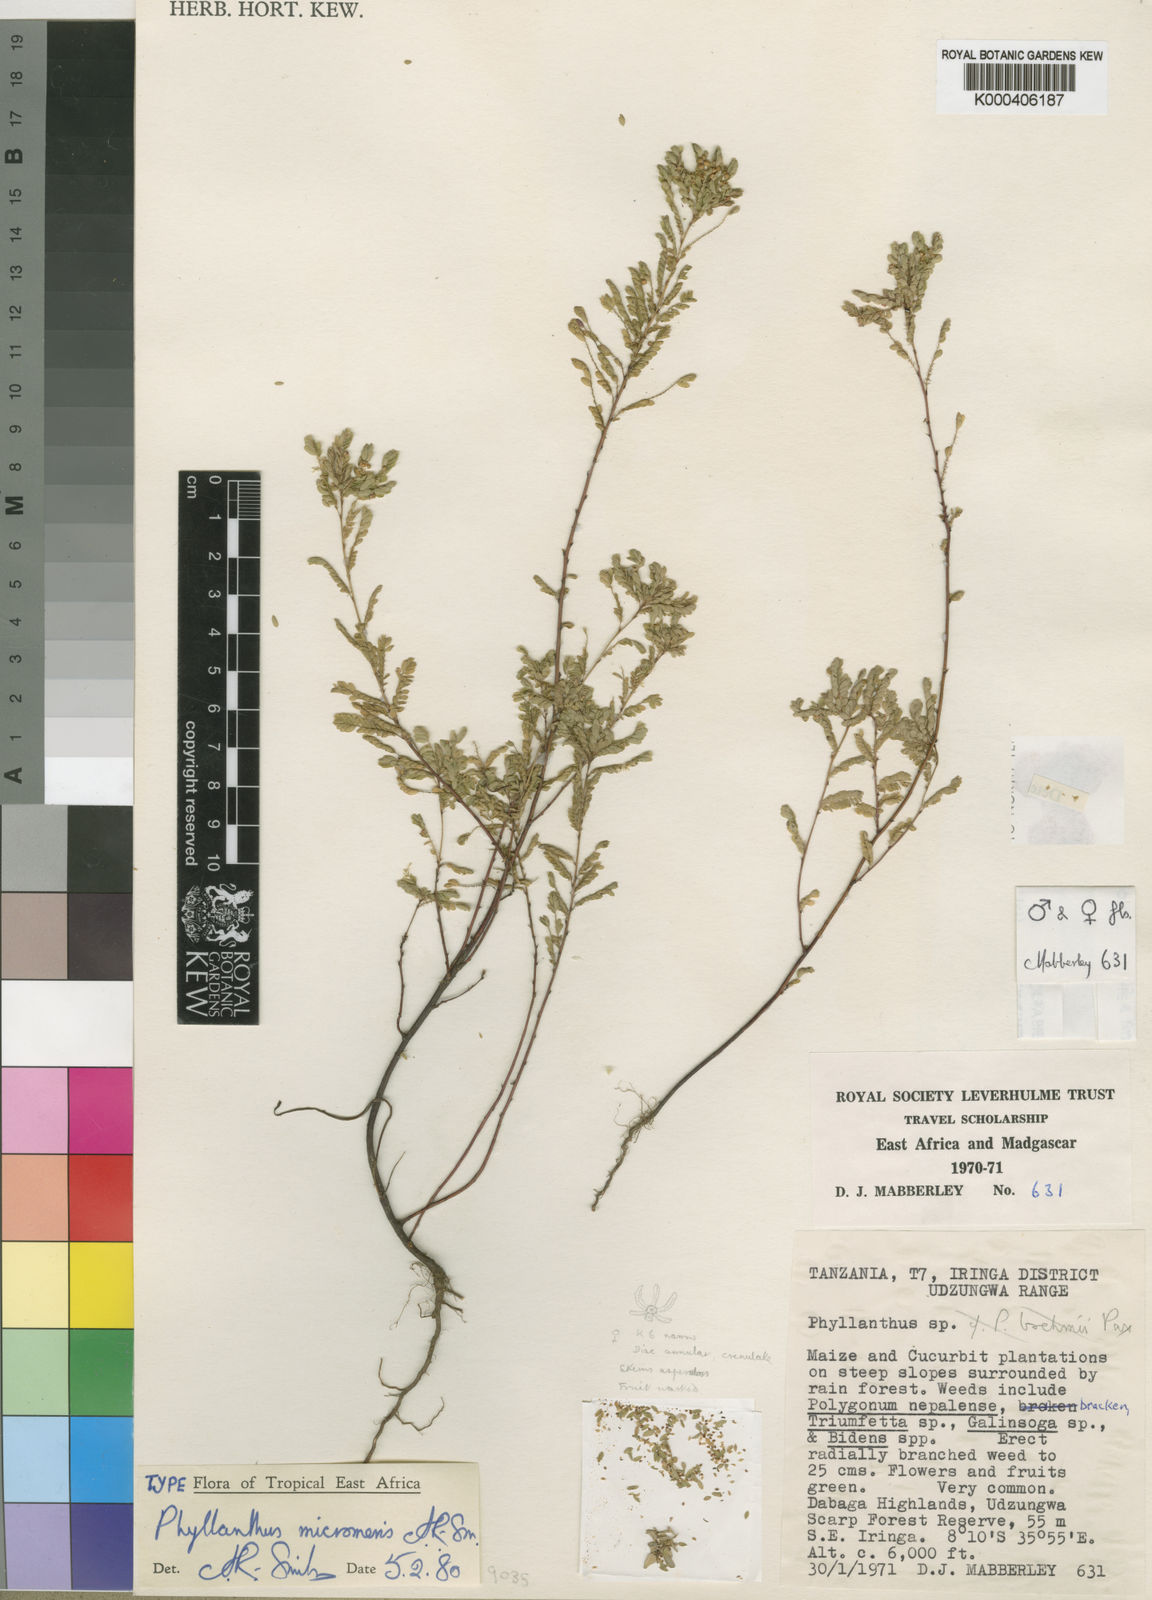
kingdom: Plantae
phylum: Tracheophyta
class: Magnoliopsida
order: Malpighiales
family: Phyllanthaceae
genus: Phyllanthus
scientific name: Phyllanthus micromeris
